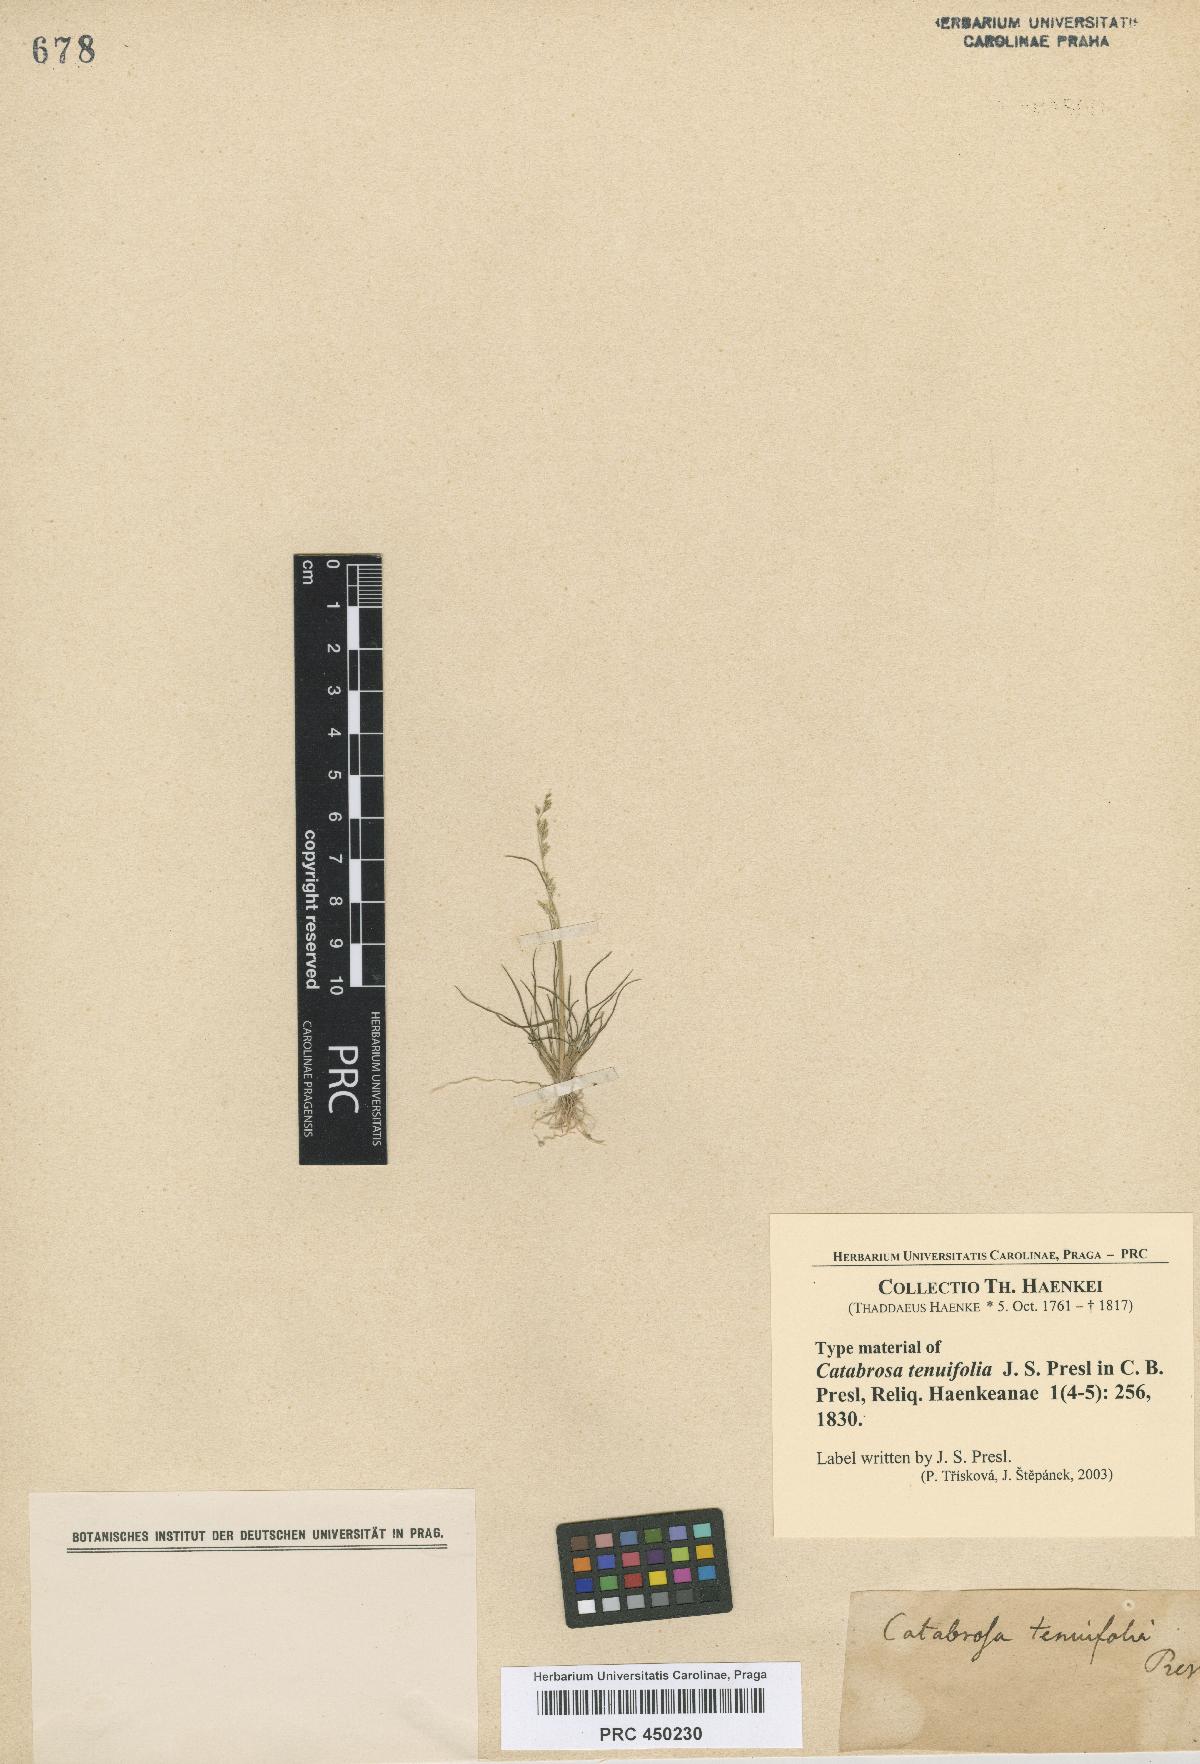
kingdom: Plantae
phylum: Tracheophyta
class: Liliopsida
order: Poales
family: Poaceae
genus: Puccinellia
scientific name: Puccinellia preslii
